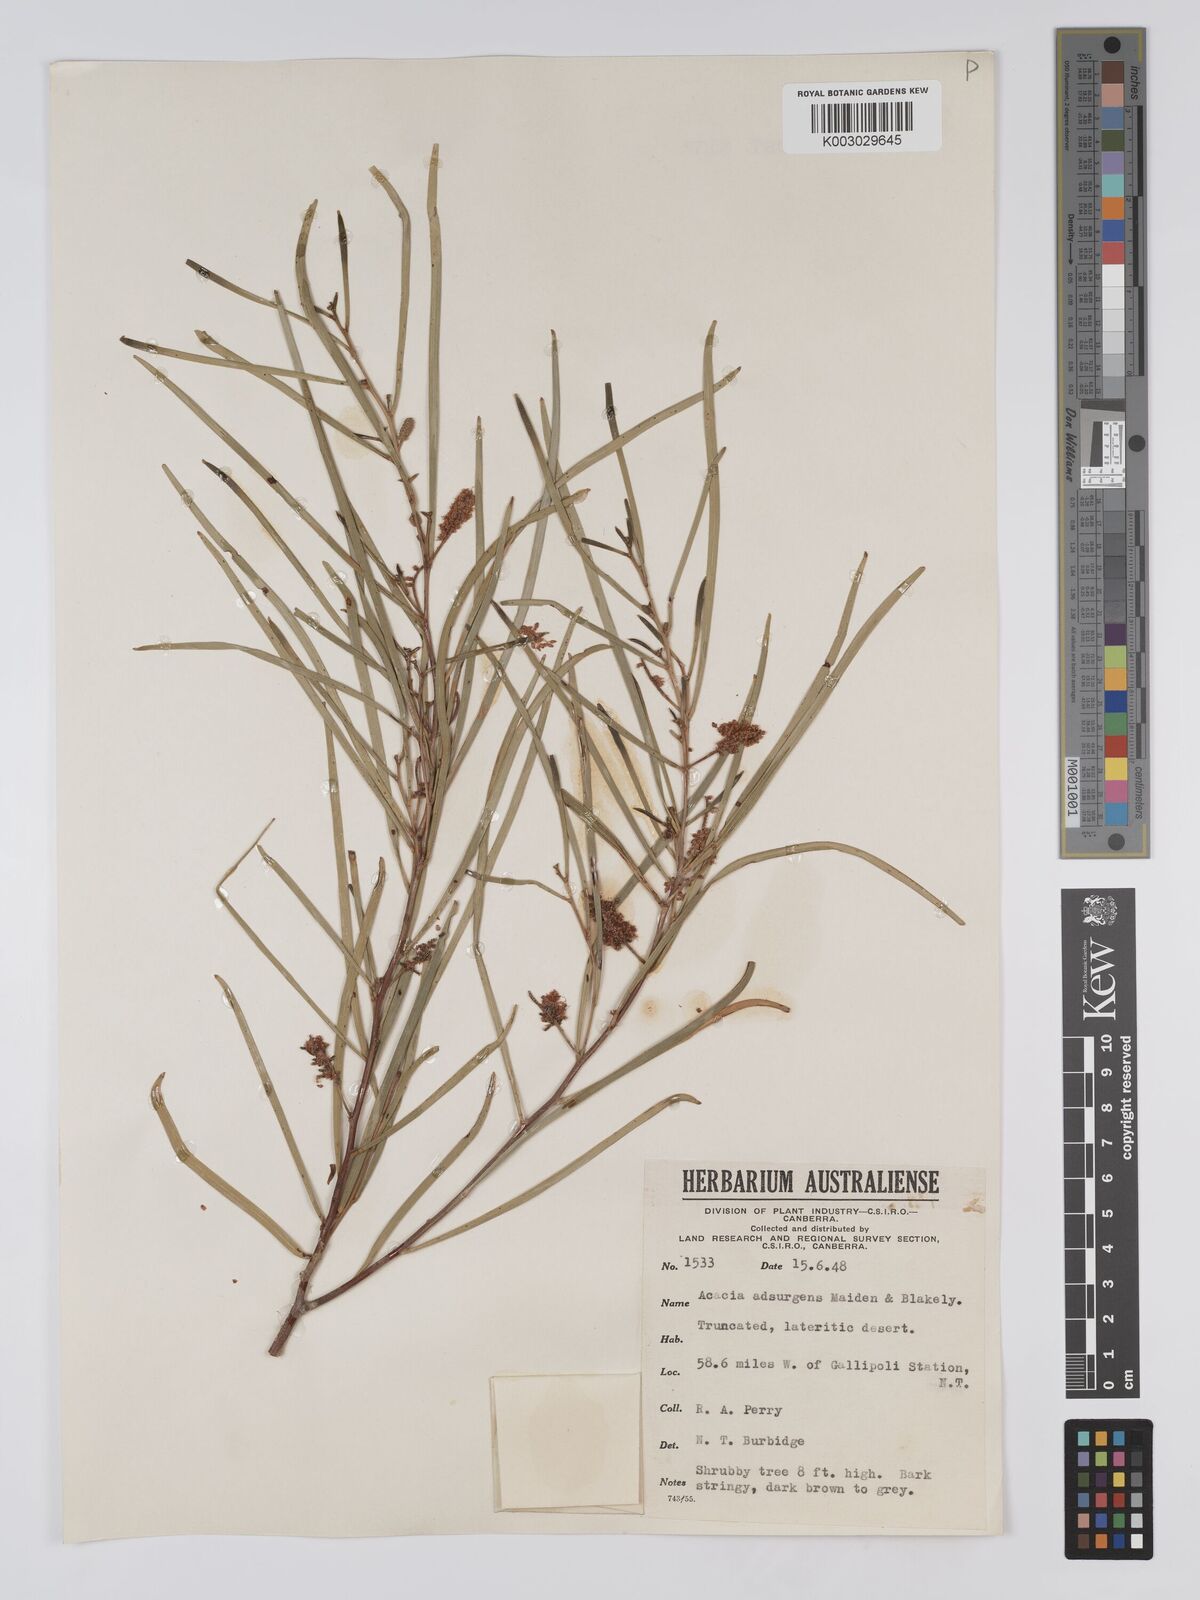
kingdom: Plantae
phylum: Tracheophyta
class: Magnoliopsida
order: Fabales
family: Fabaceae
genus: Acacia
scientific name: Acacia adsurgens
